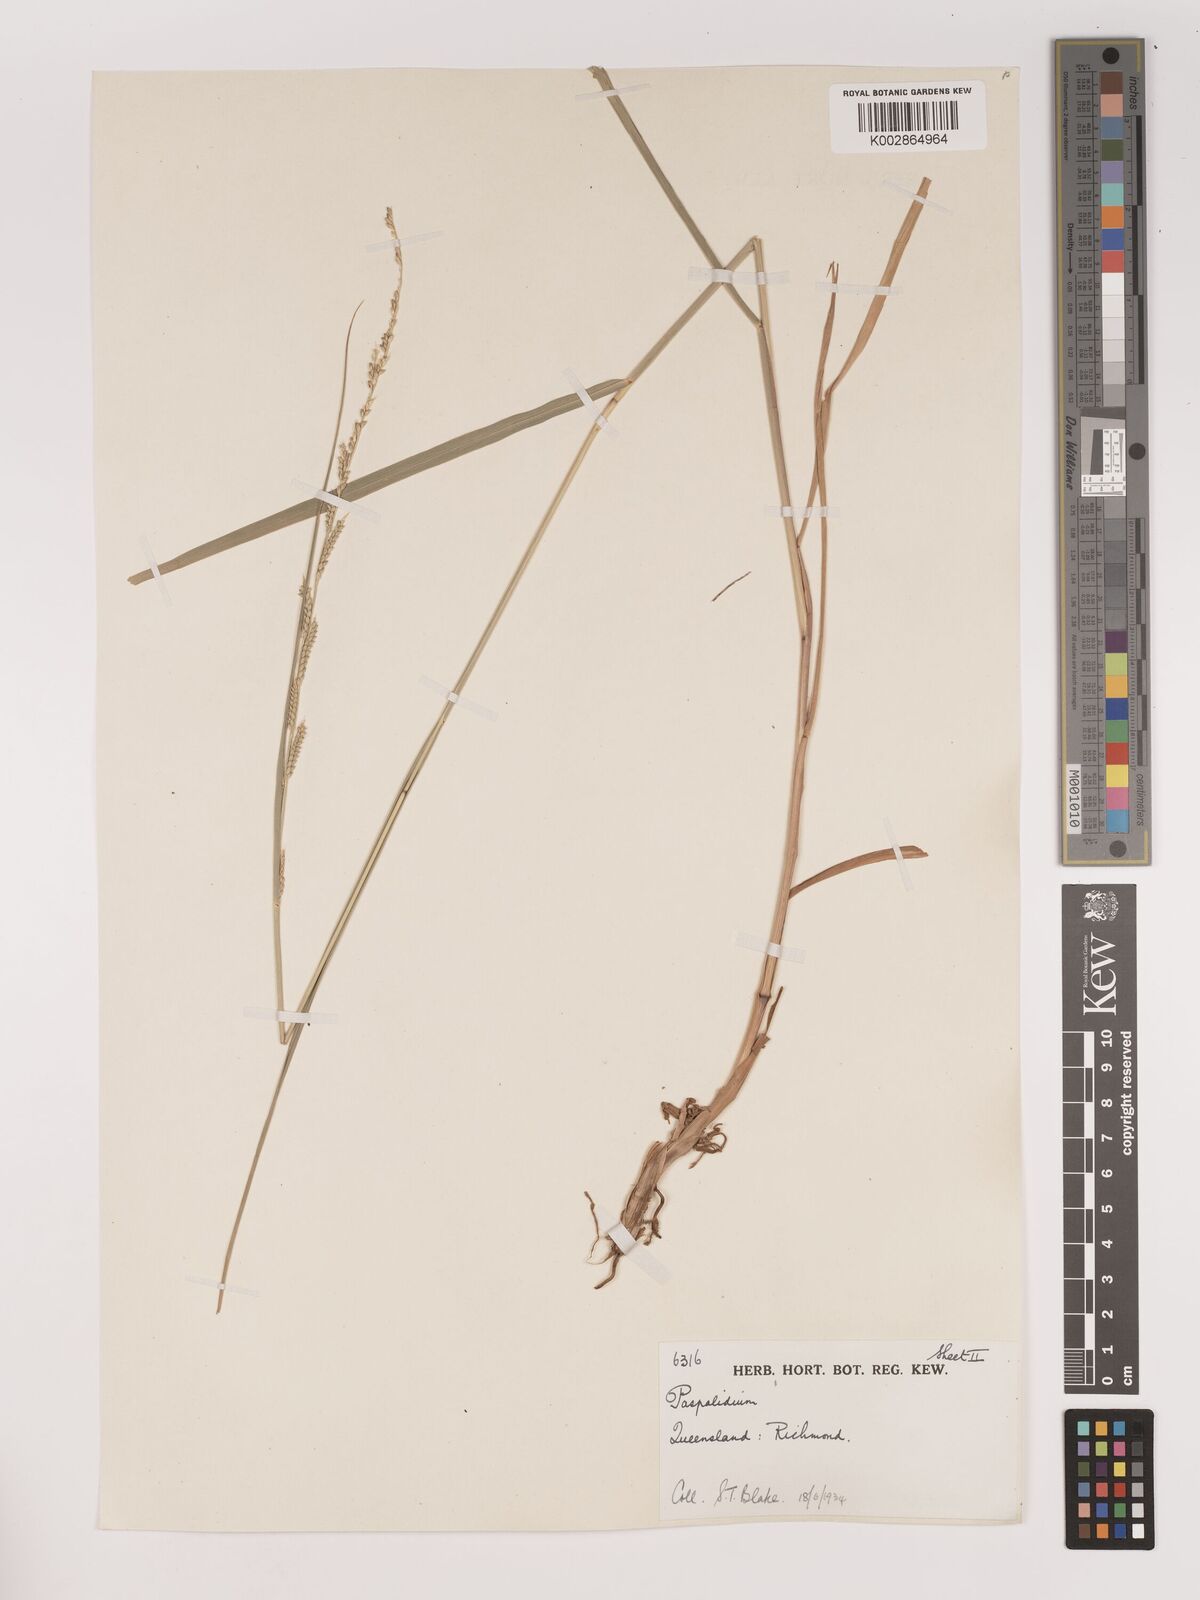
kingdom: Plantae
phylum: Tracheophyta
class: Liliopsida
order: Poales
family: Poaceae
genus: Setaria
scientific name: Setaria
